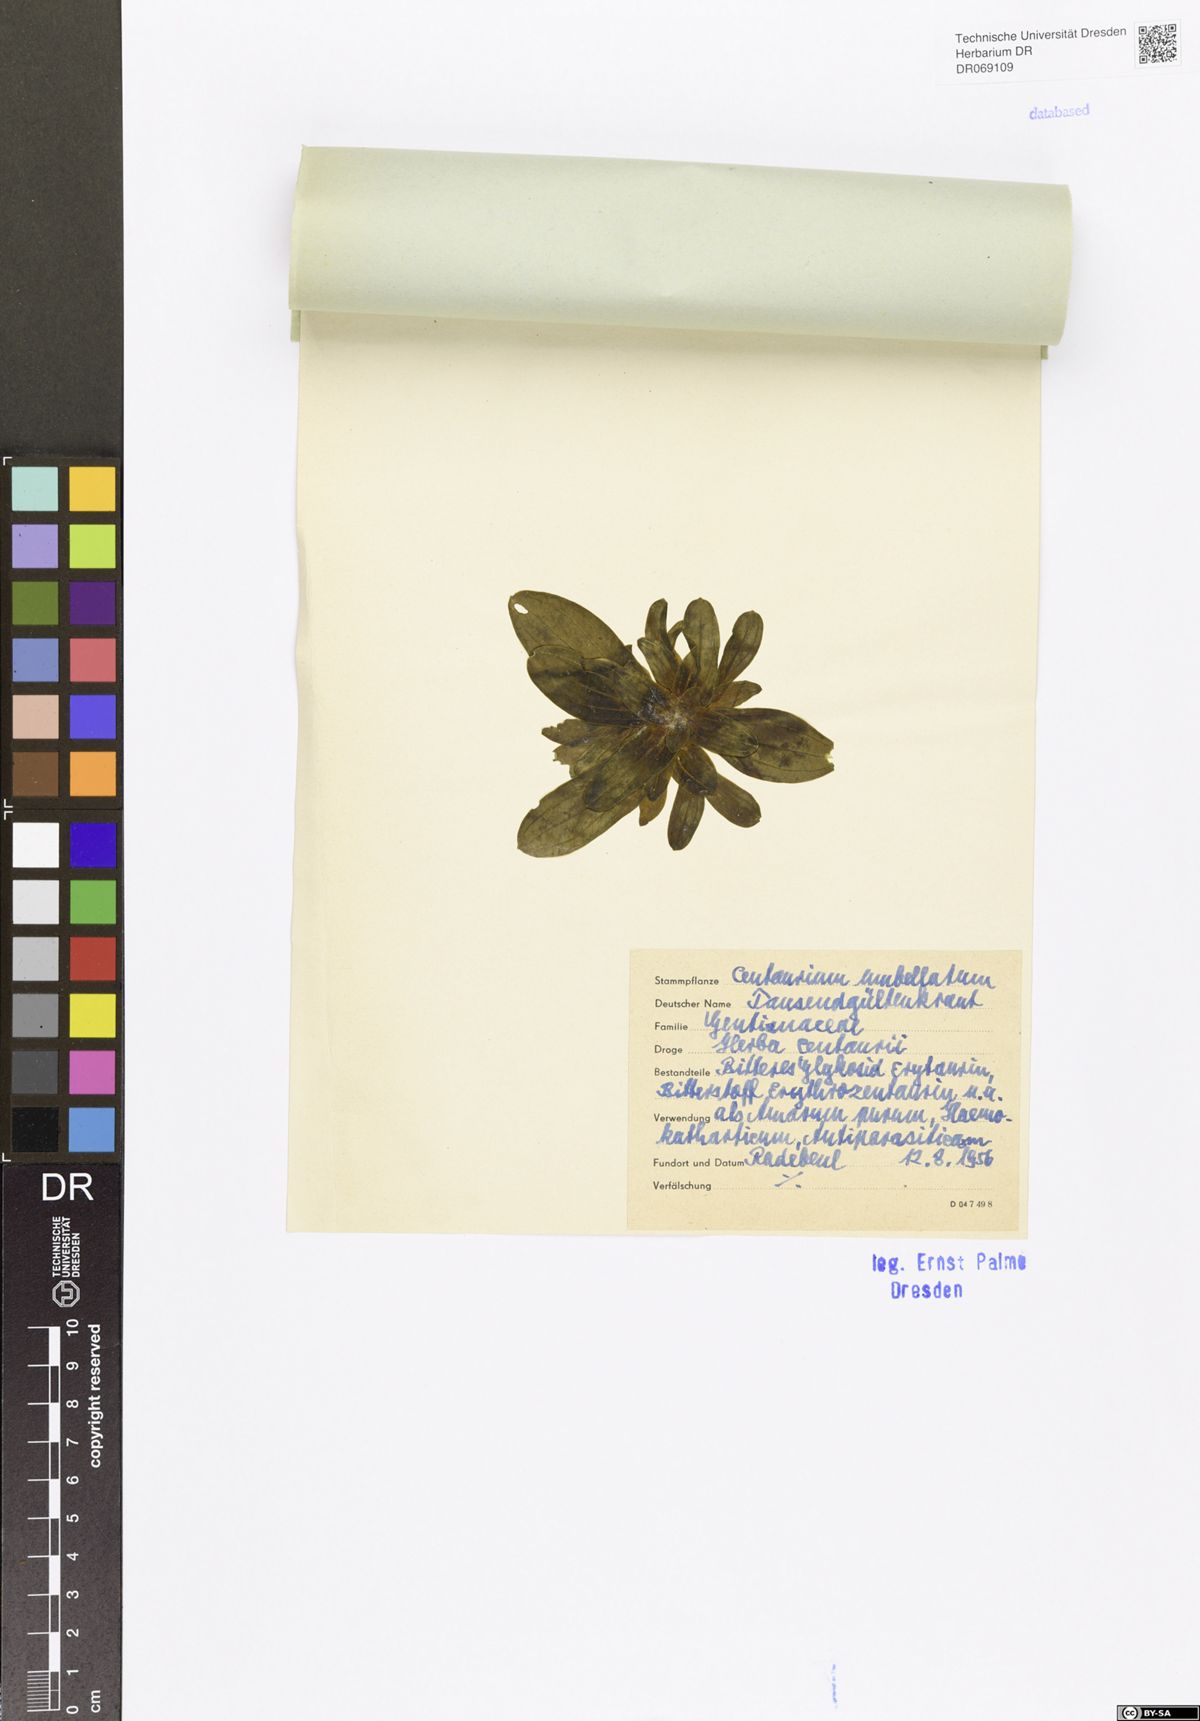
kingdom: Plantae
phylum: Tracheophyta
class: Magnoliopsida
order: Gentianales
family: Gentianaceae
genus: Centaurium
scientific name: Centaurium erythraea
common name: Common centaury
